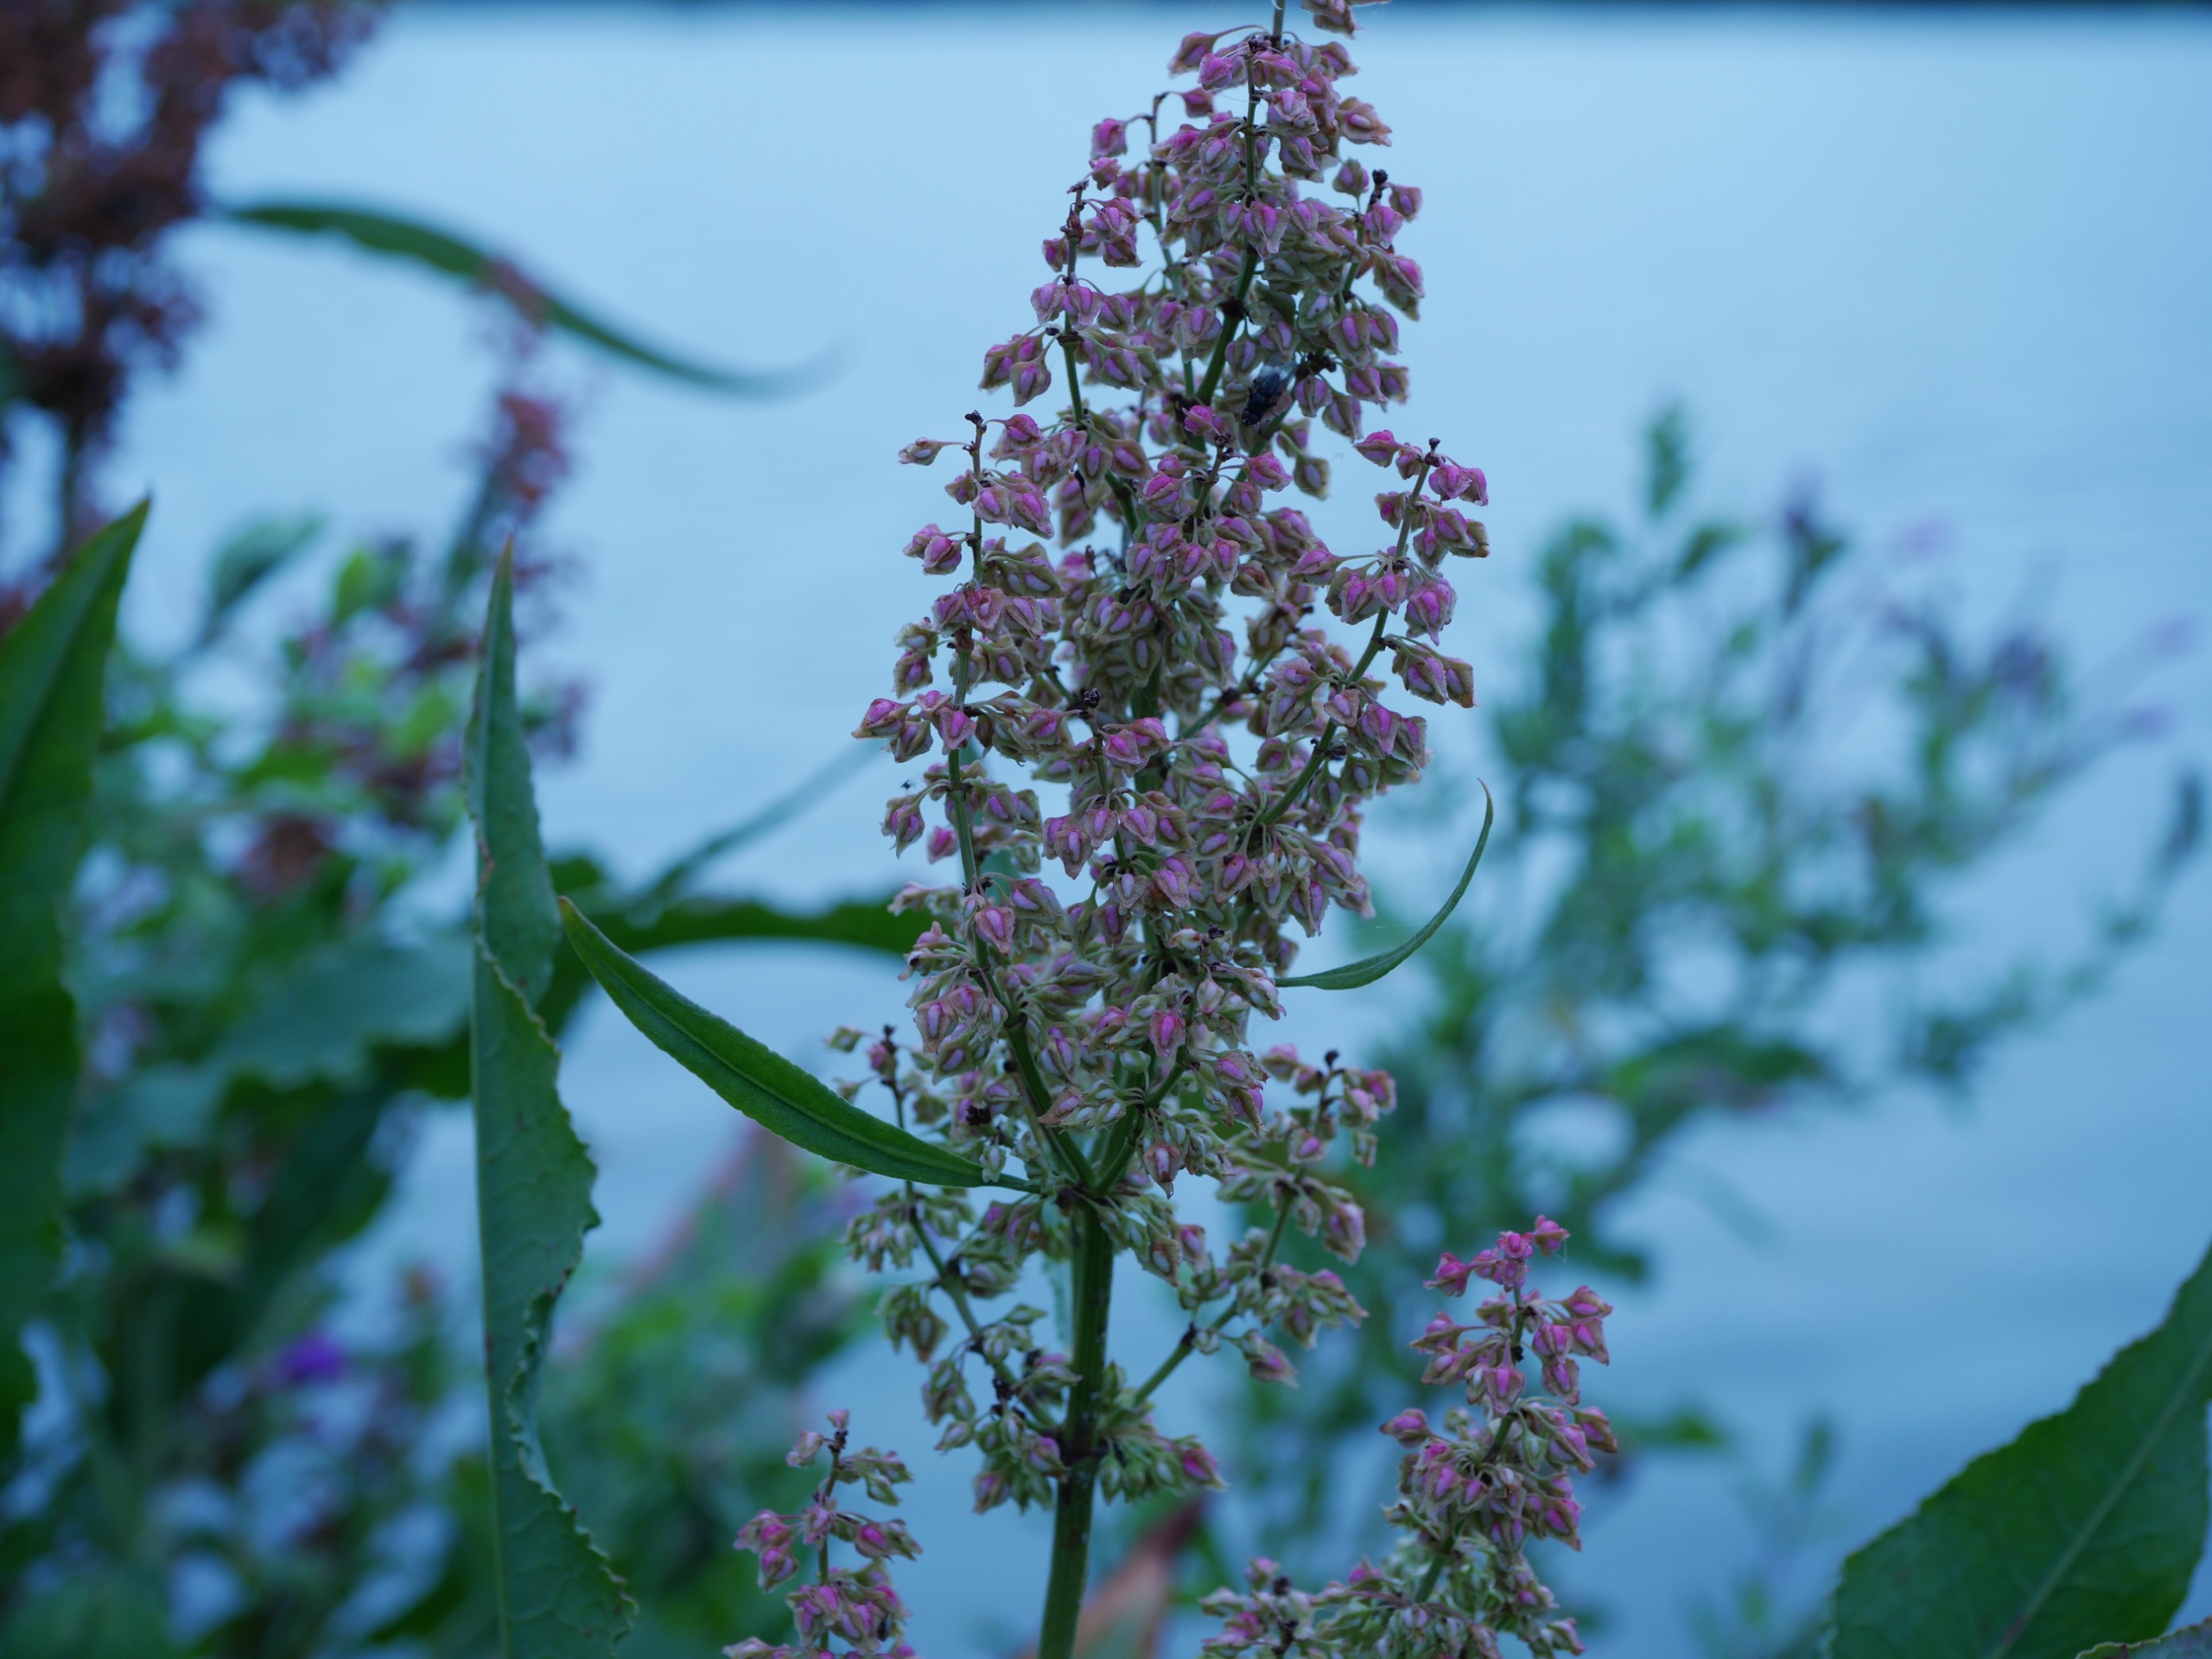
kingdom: Plantae
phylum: Tracheophyta
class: Magnoliopsida
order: Caryophyllales
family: Polygonaceae
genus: Rumex
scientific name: Rumex hydrolapathum
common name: Vand-skræppe
